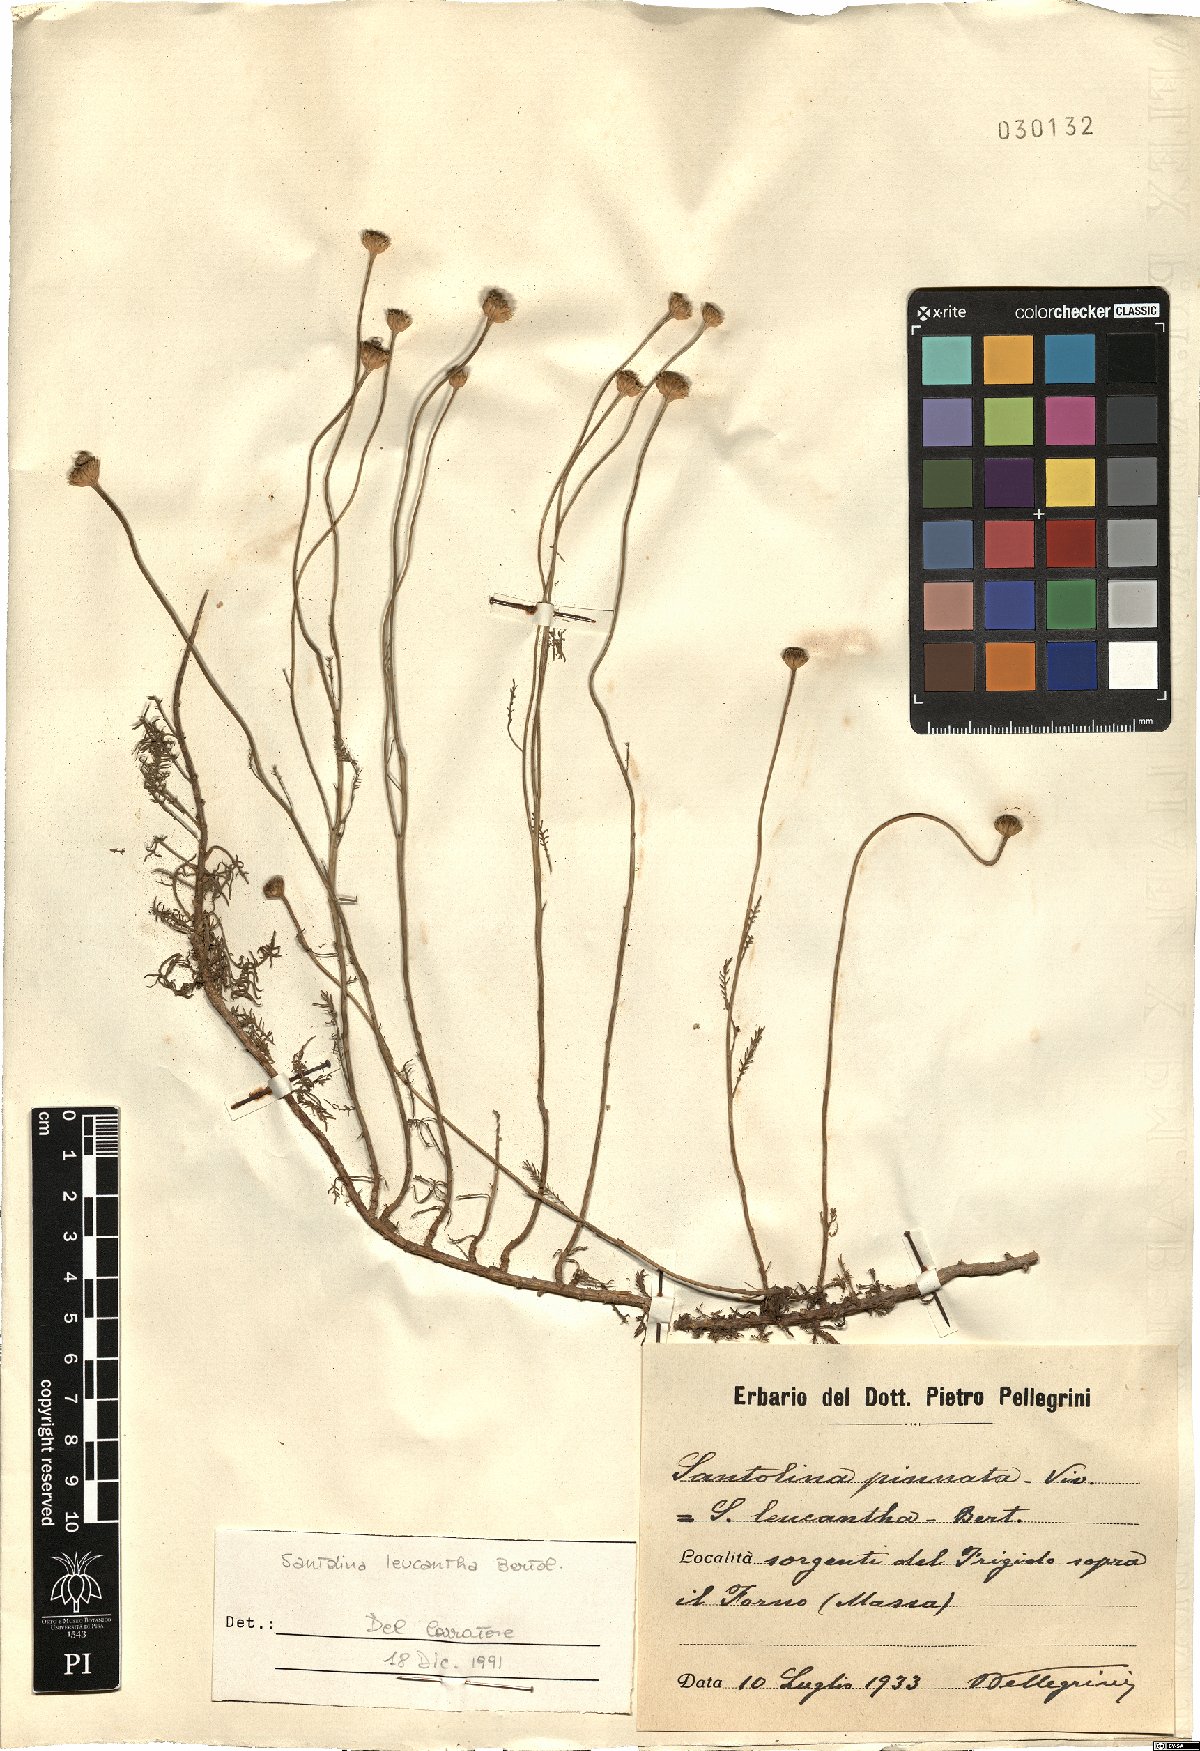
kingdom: Plantae
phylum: Tracheophyta
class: Magnoliopsida
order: Asterales
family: Asteraceae
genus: Santolina
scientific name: Santolina pinnata
